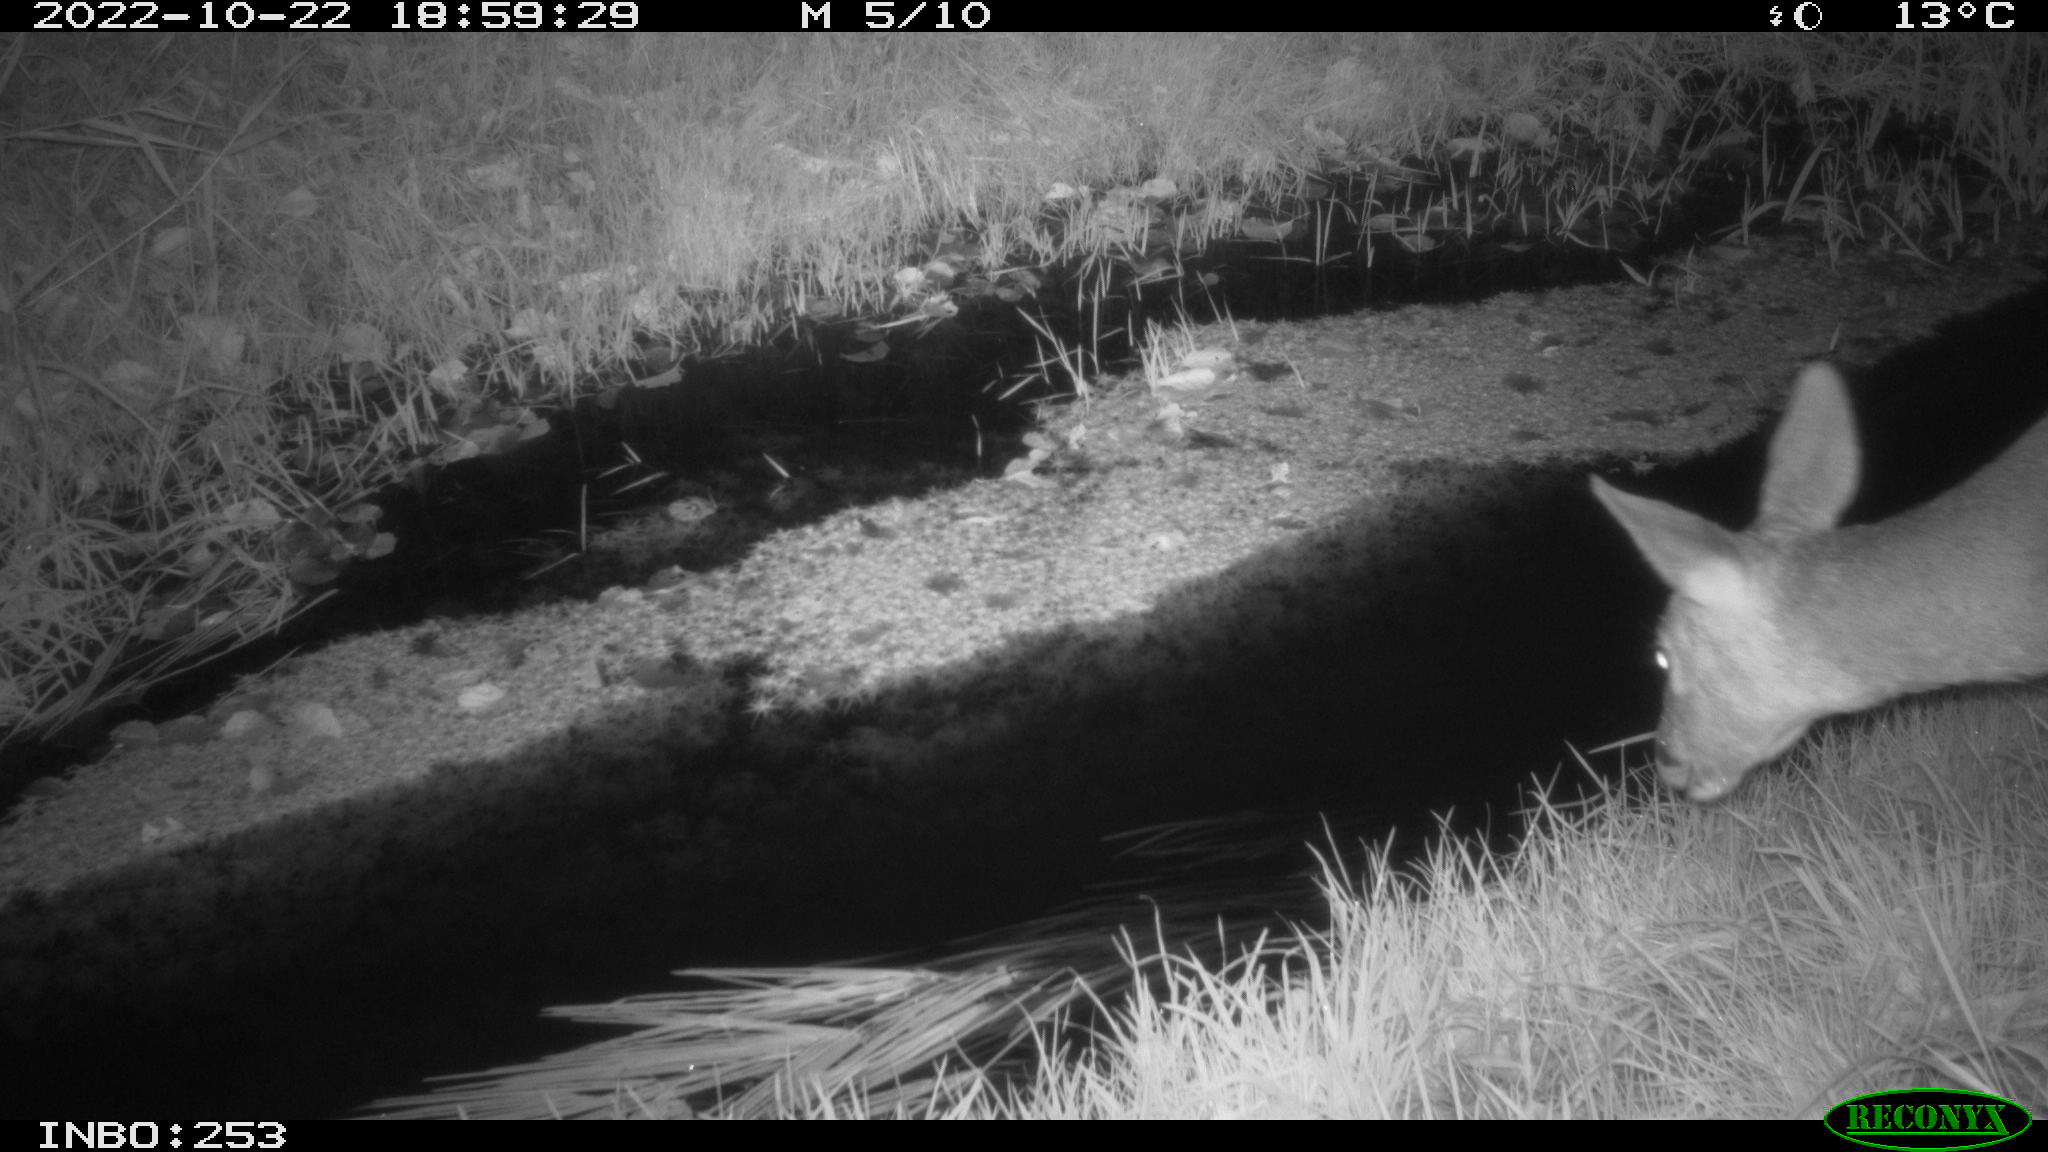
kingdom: Animalia
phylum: Chordata
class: Mammalia
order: Artiodactyla
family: Cervidae
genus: Capreolus
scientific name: Capreolus capreolus
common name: Western roe deer
